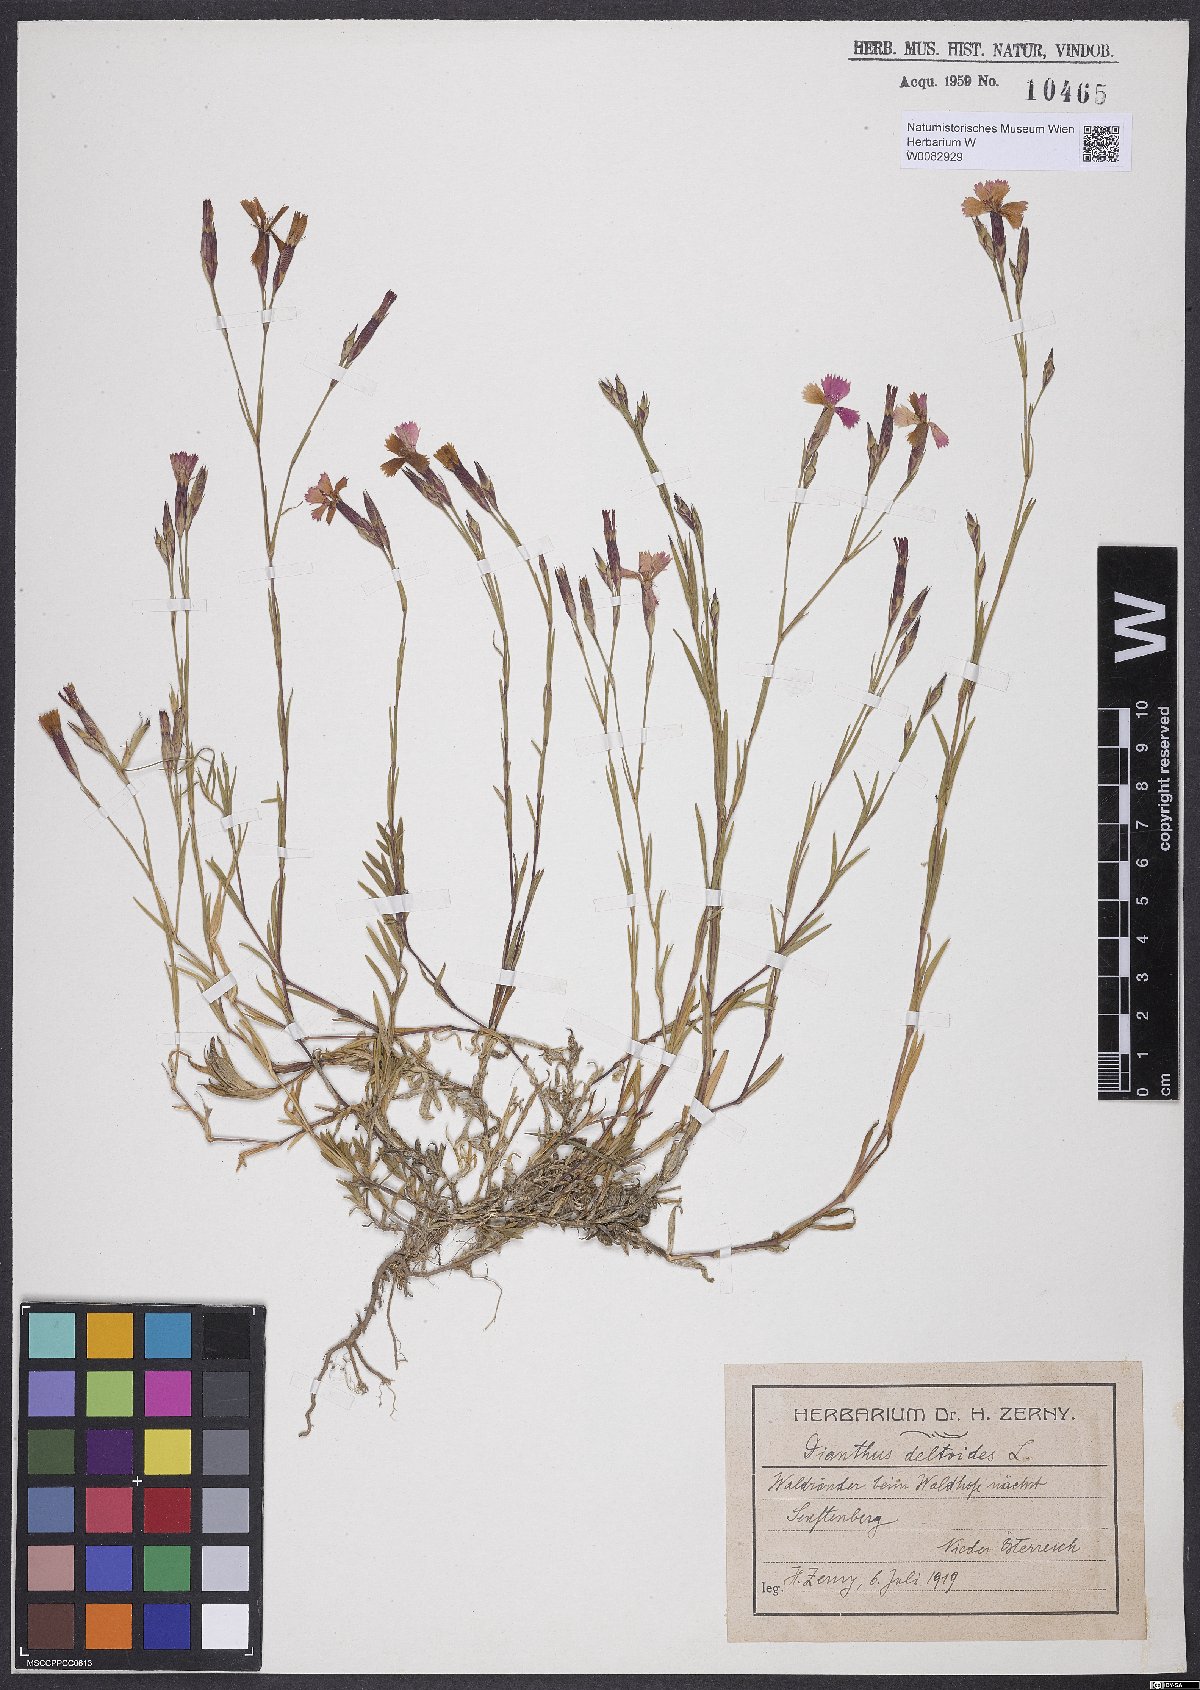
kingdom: Plantae
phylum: Tracheophyta
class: Magnoliopsida
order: Caryophyllales
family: Caryophyllaceae
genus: Dianthus
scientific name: Dianthus deltoides
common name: Maiden pink
